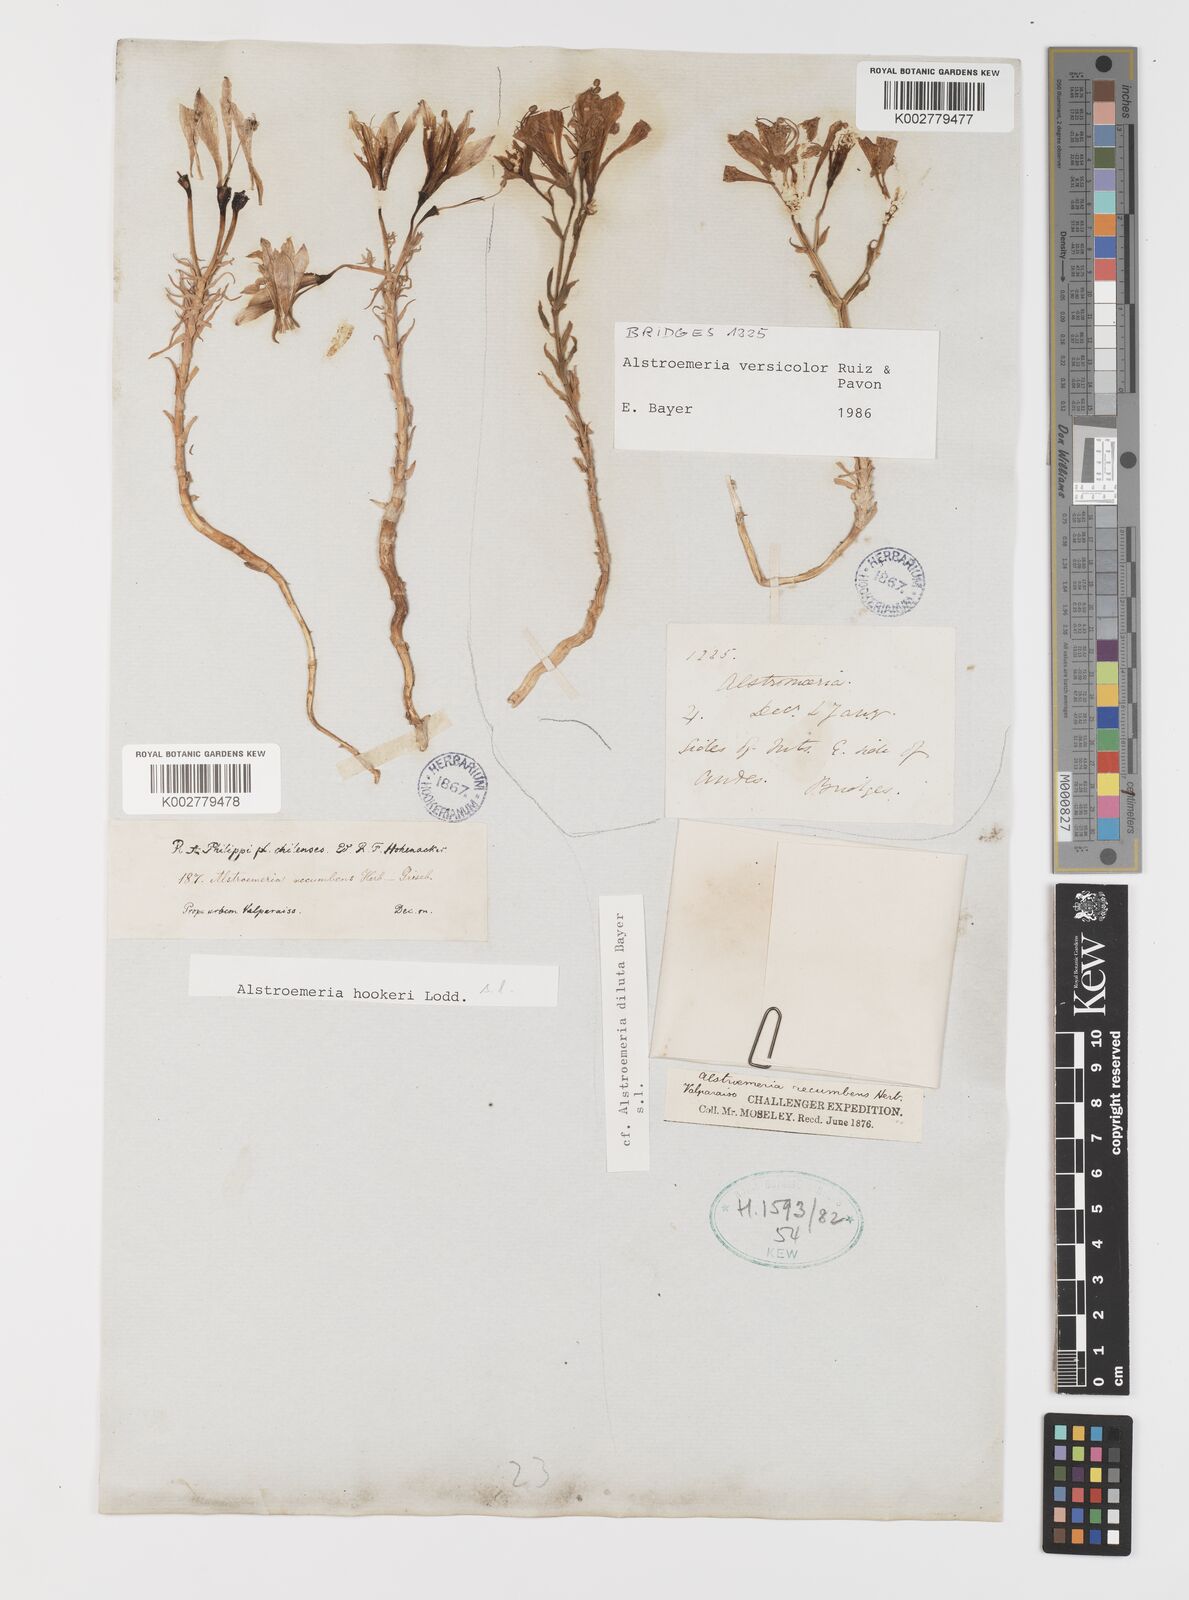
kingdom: Plantae
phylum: Tracheophyta
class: Liliopsida
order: Liliales
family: Alstroemeriaceae
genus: Alstroemeria
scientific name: Alstroemeria versicolor
